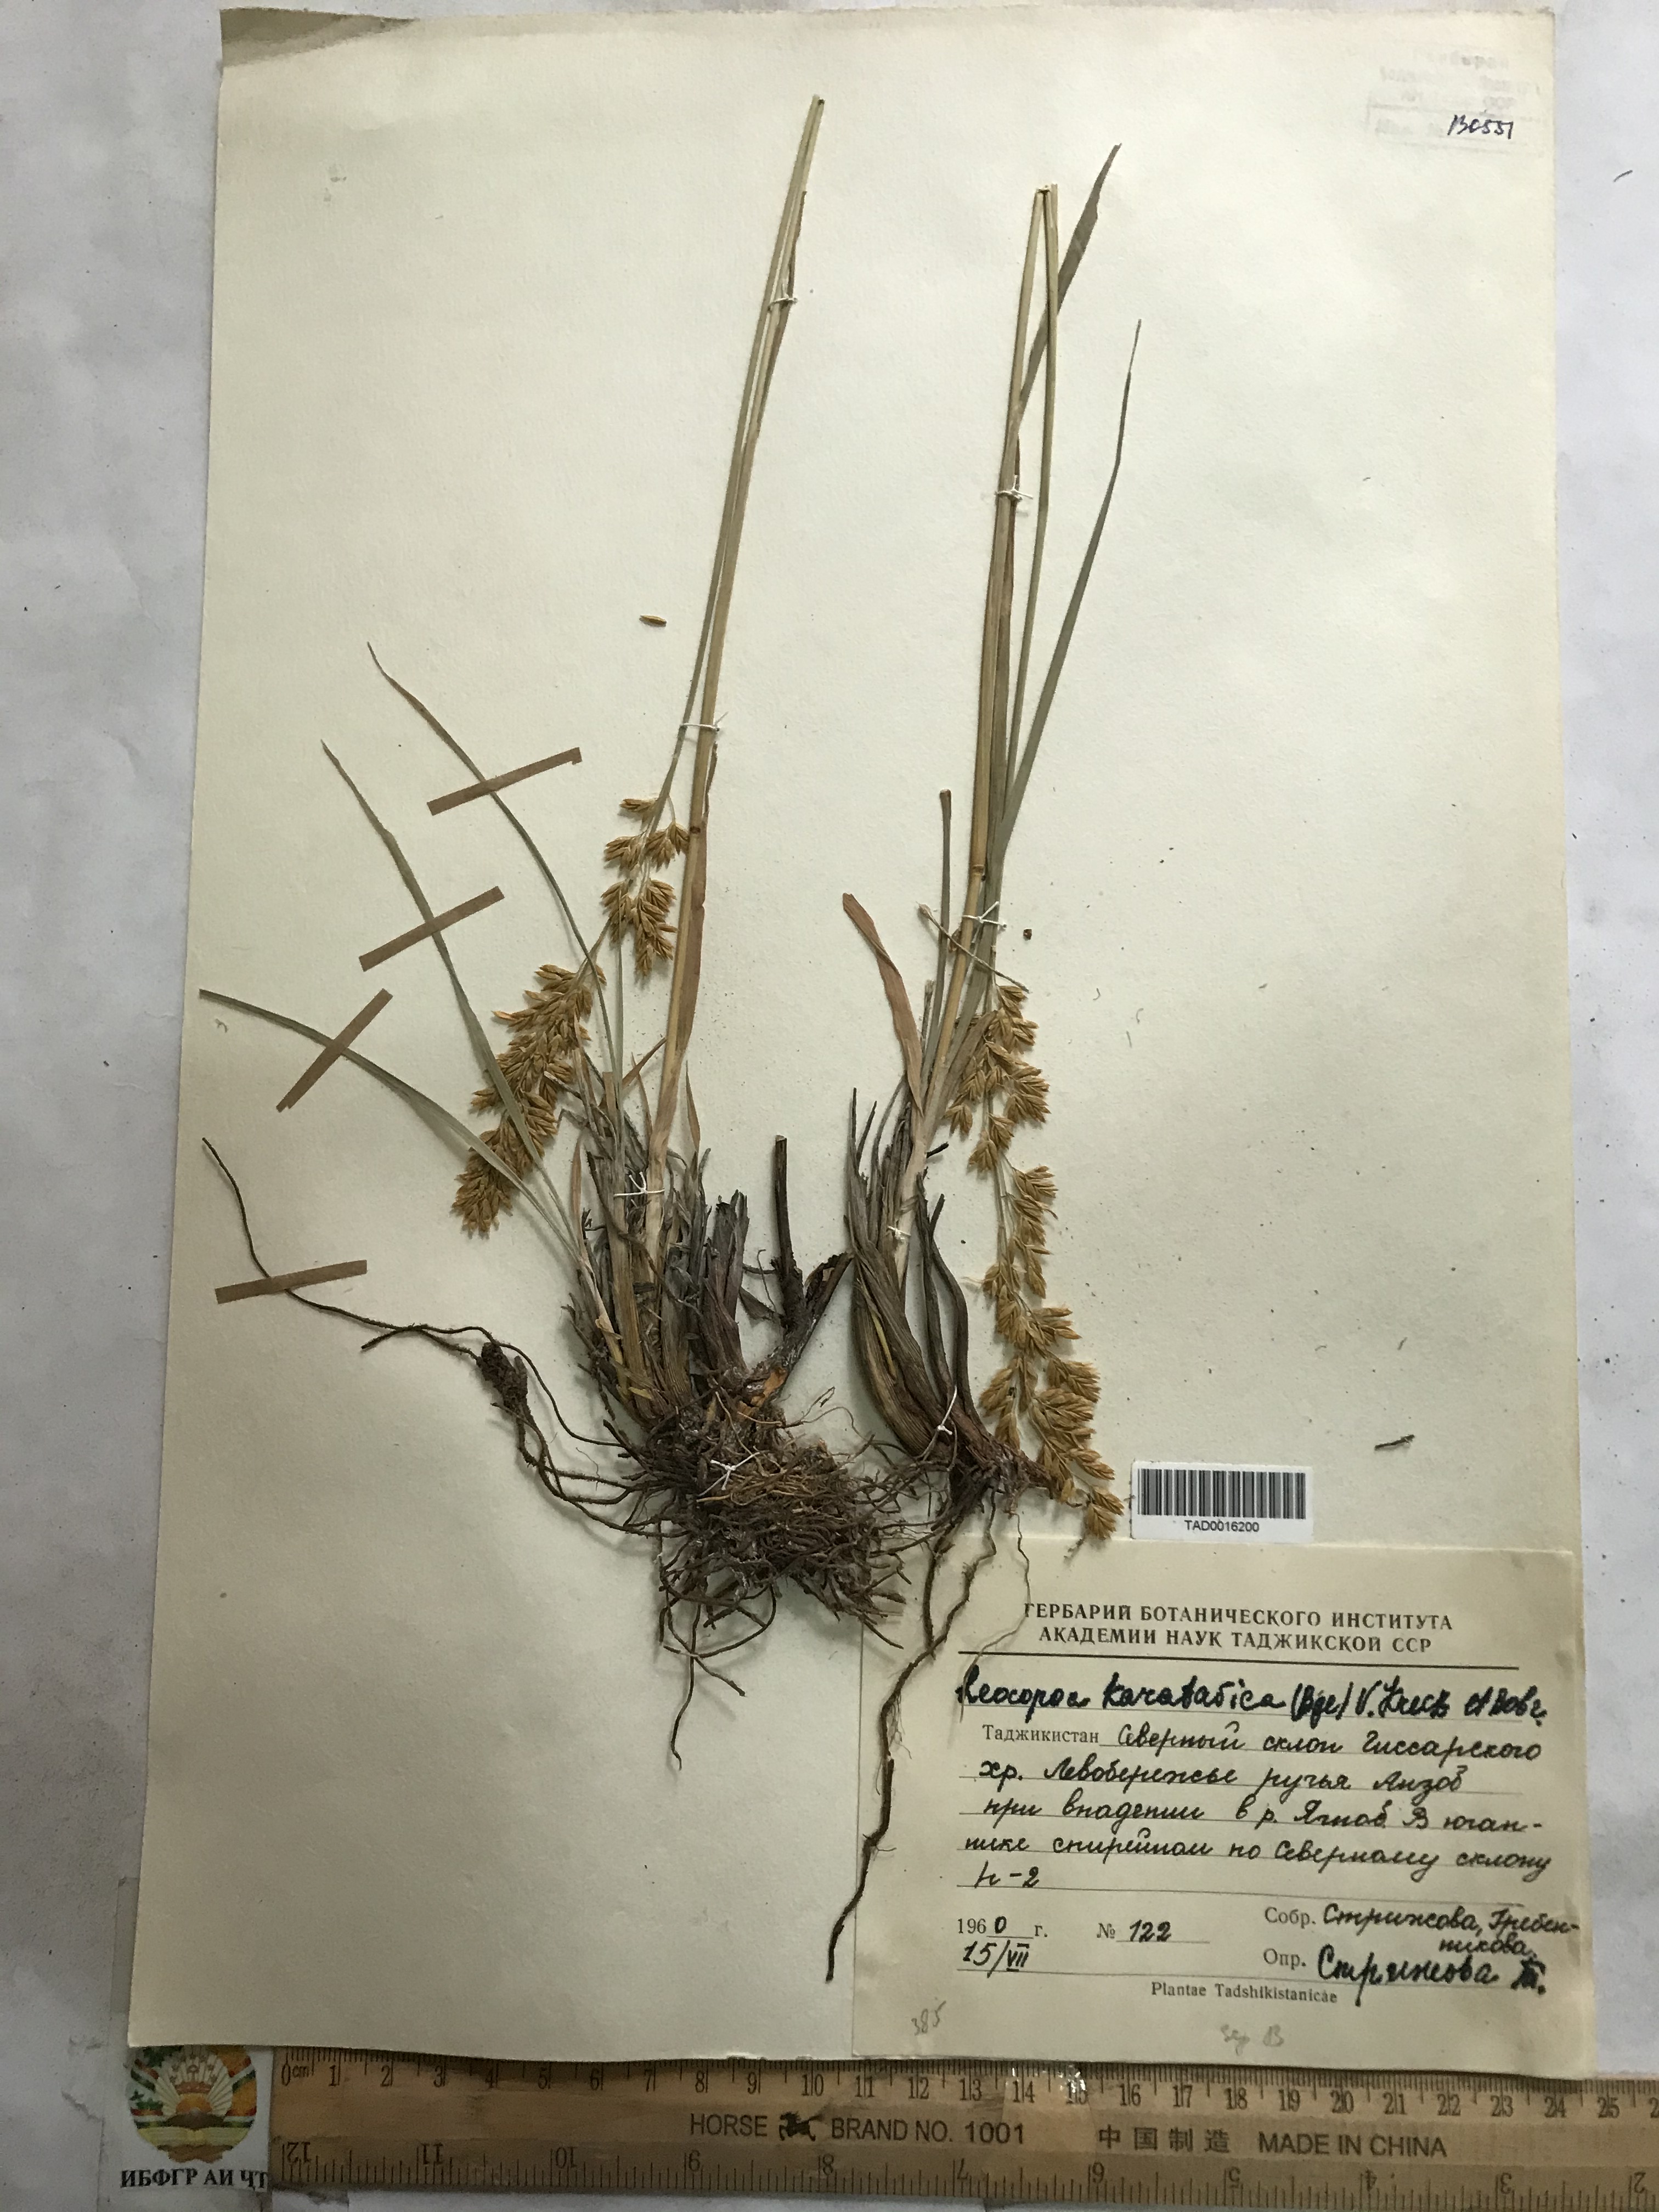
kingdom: Plantae
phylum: Tracheophyta
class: Liliopsida
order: Poales
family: Poaceae
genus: Festuca
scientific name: Festuca karatavica
